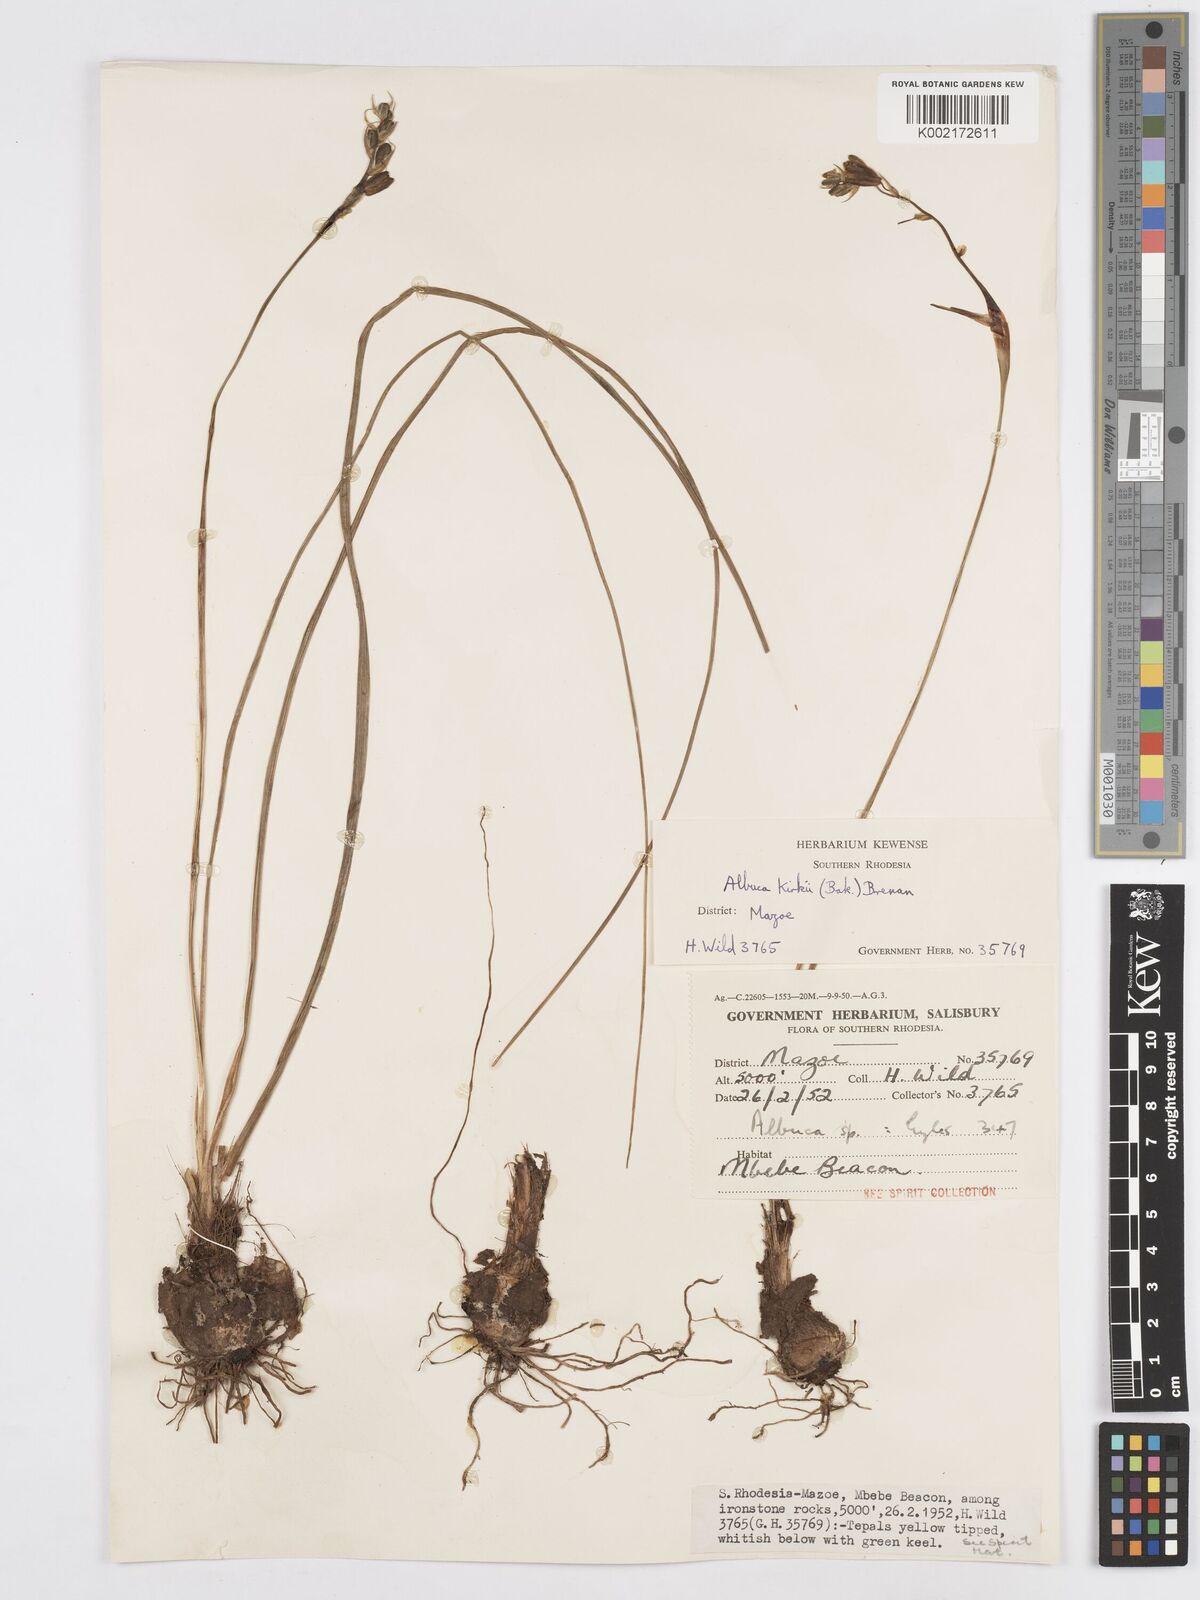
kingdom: Plantae
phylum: Tracheophyta
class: Liliopsida
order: Asparagales
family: Asparagaceae
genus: Albuca
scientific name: Albuca kirkii
